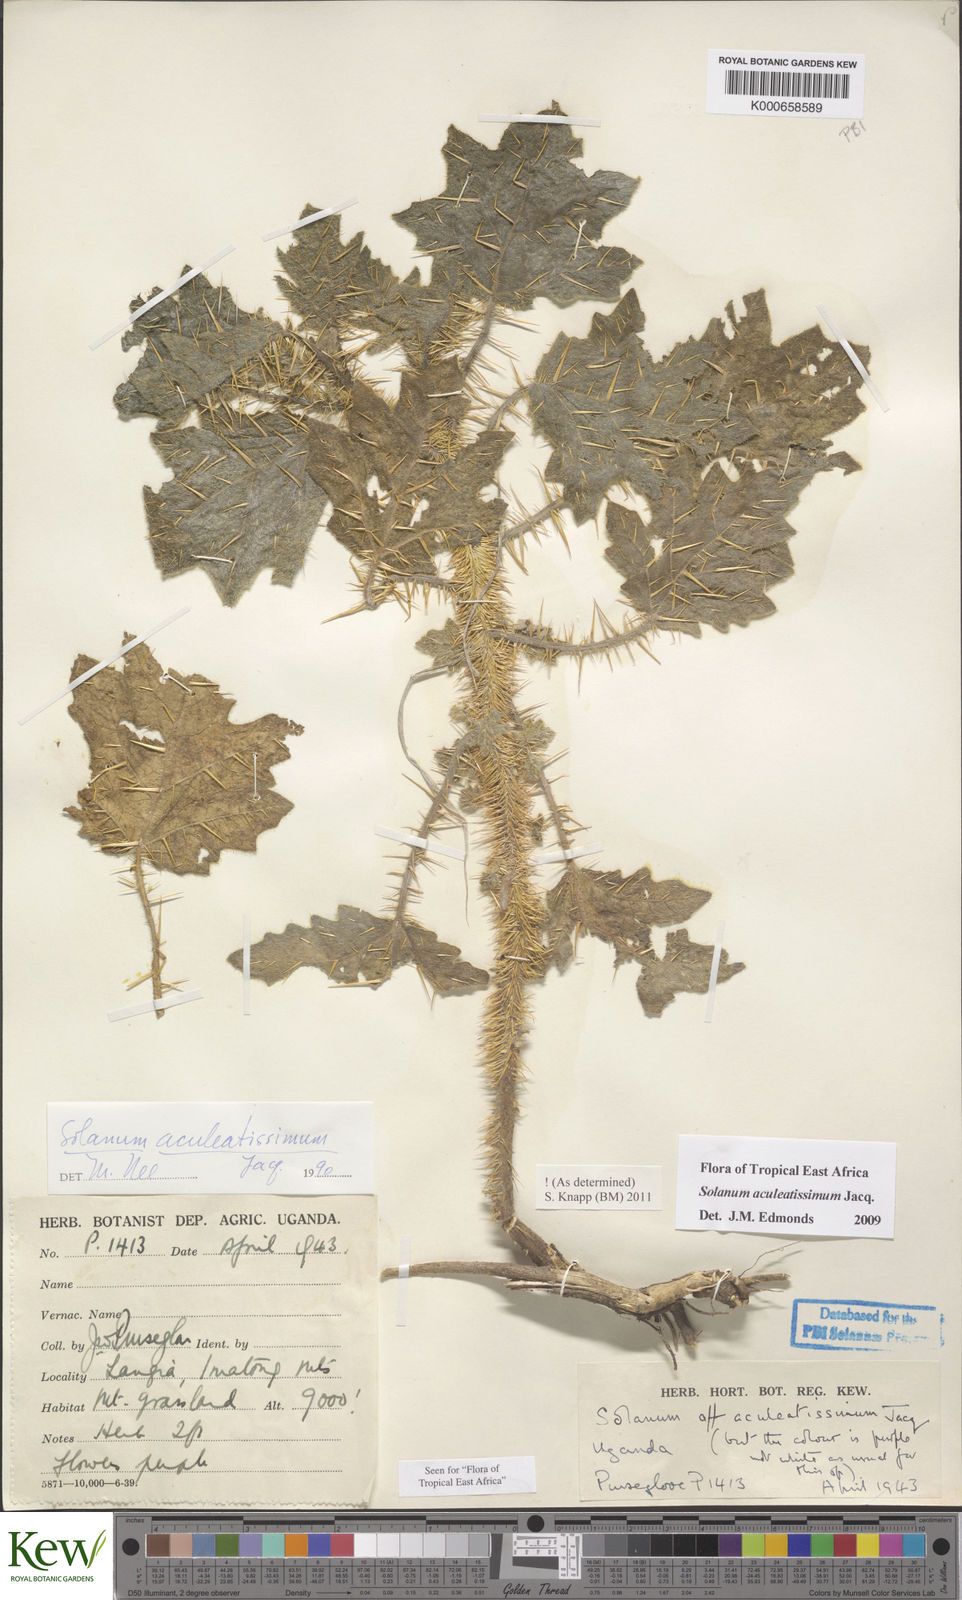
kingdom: Plantae
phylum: Tracheophyta
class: Magnoliopsida
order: Solanales
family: Solanaceae
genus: Solanum
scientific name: Solanum aculeatissimum
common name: Dutch eggplant
